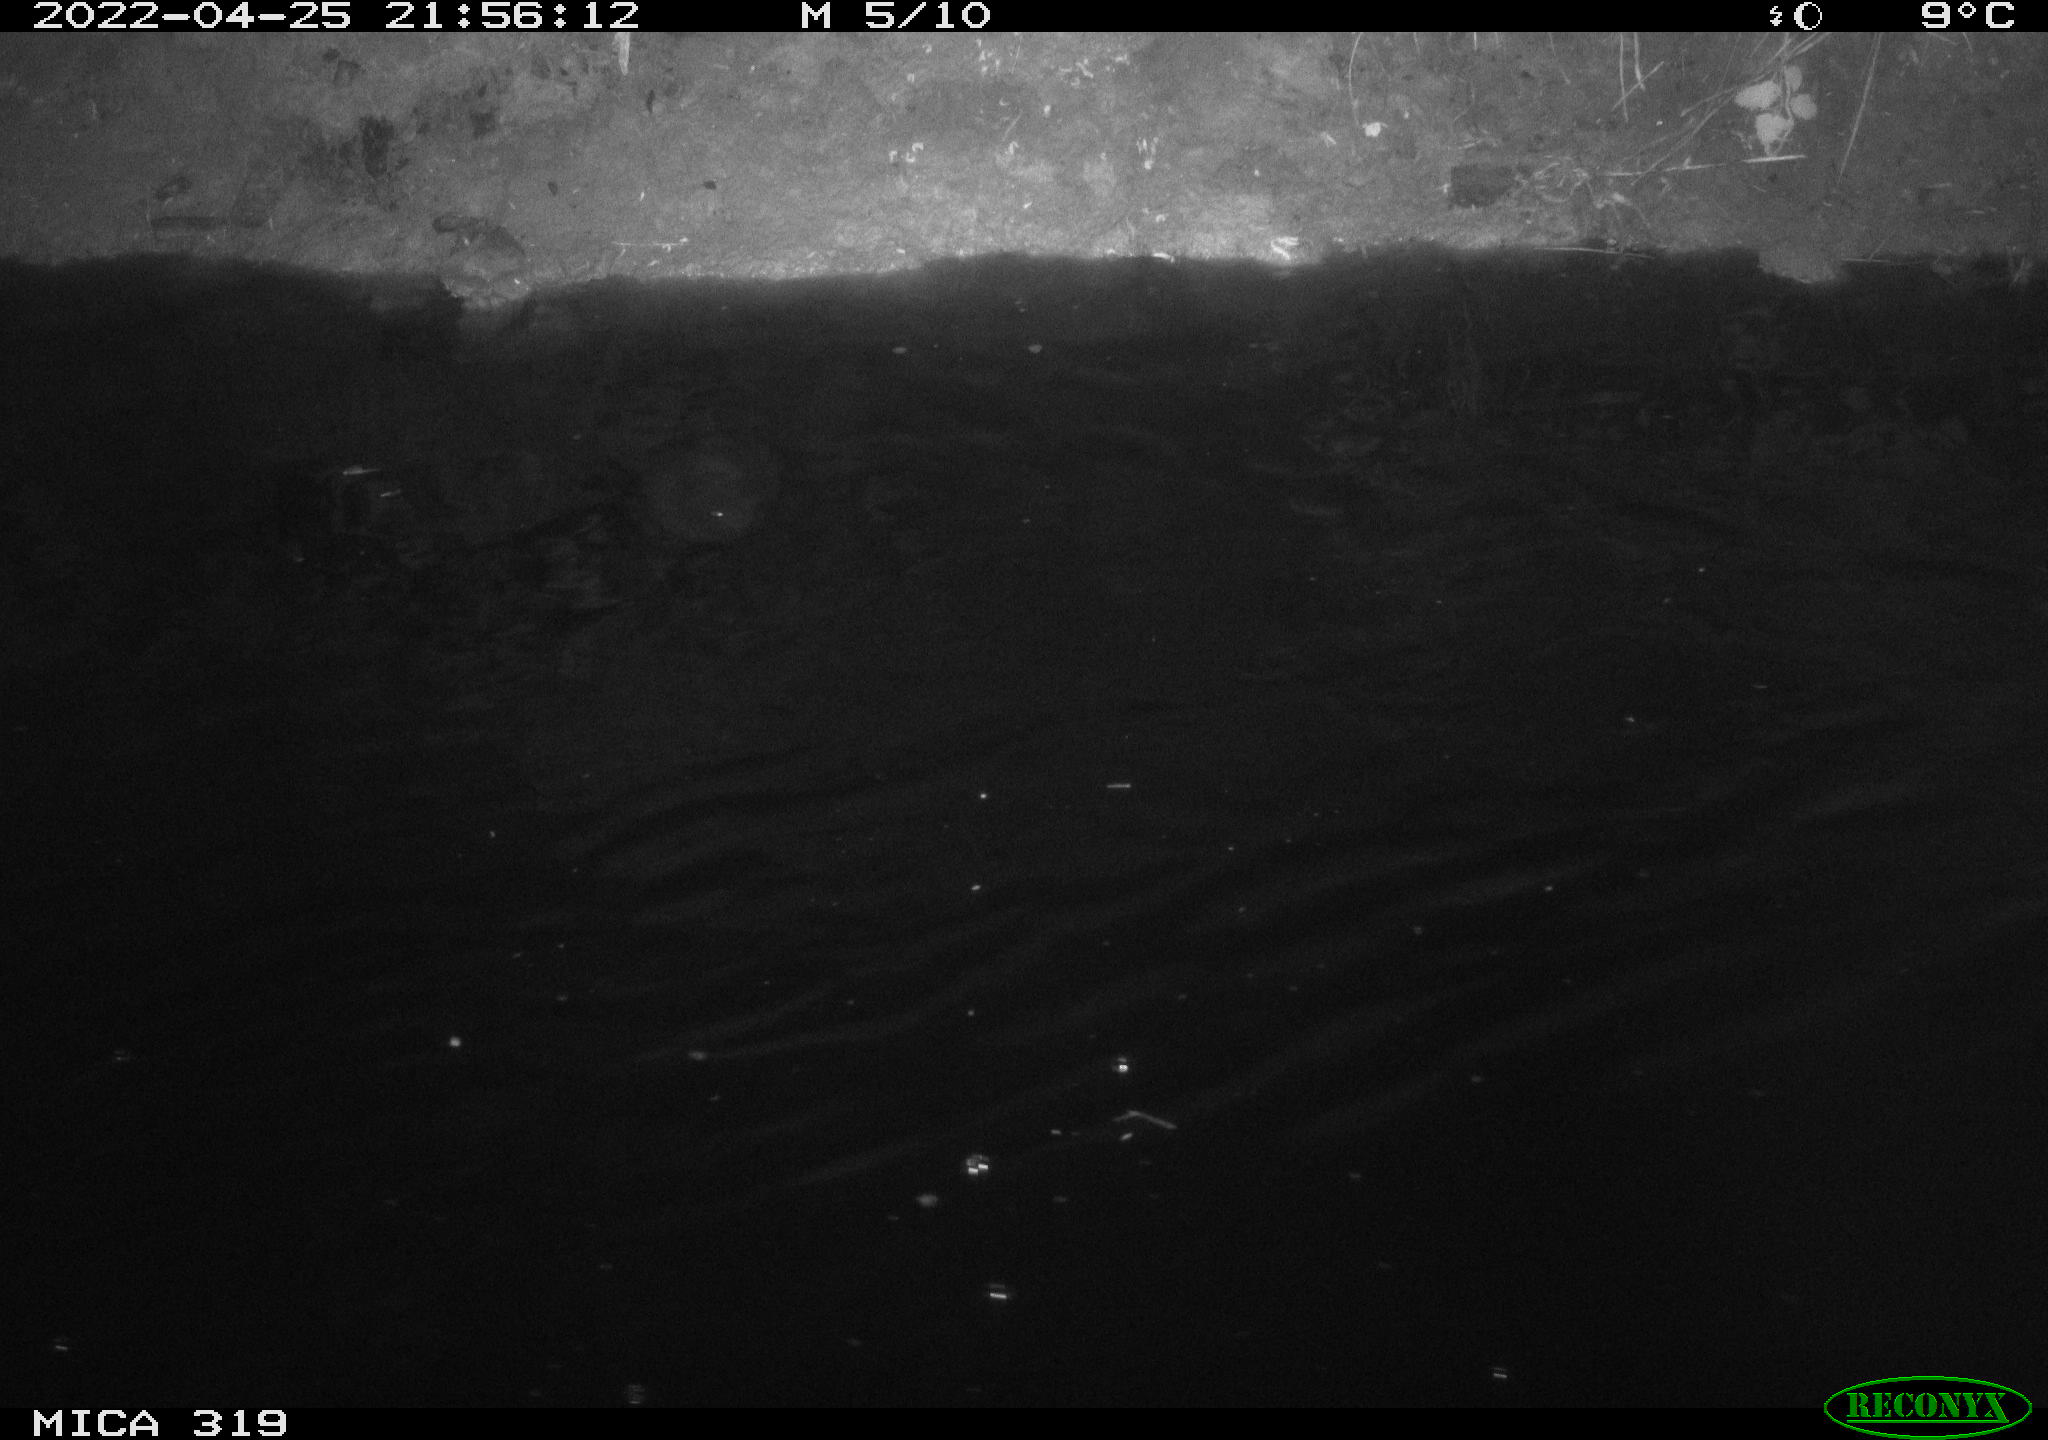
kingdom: Animalia
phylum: Chordata
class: Aves
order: Anseriformes
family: Anatidae
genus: Anas
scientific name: Anas platyrhynchos
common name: Mallard
